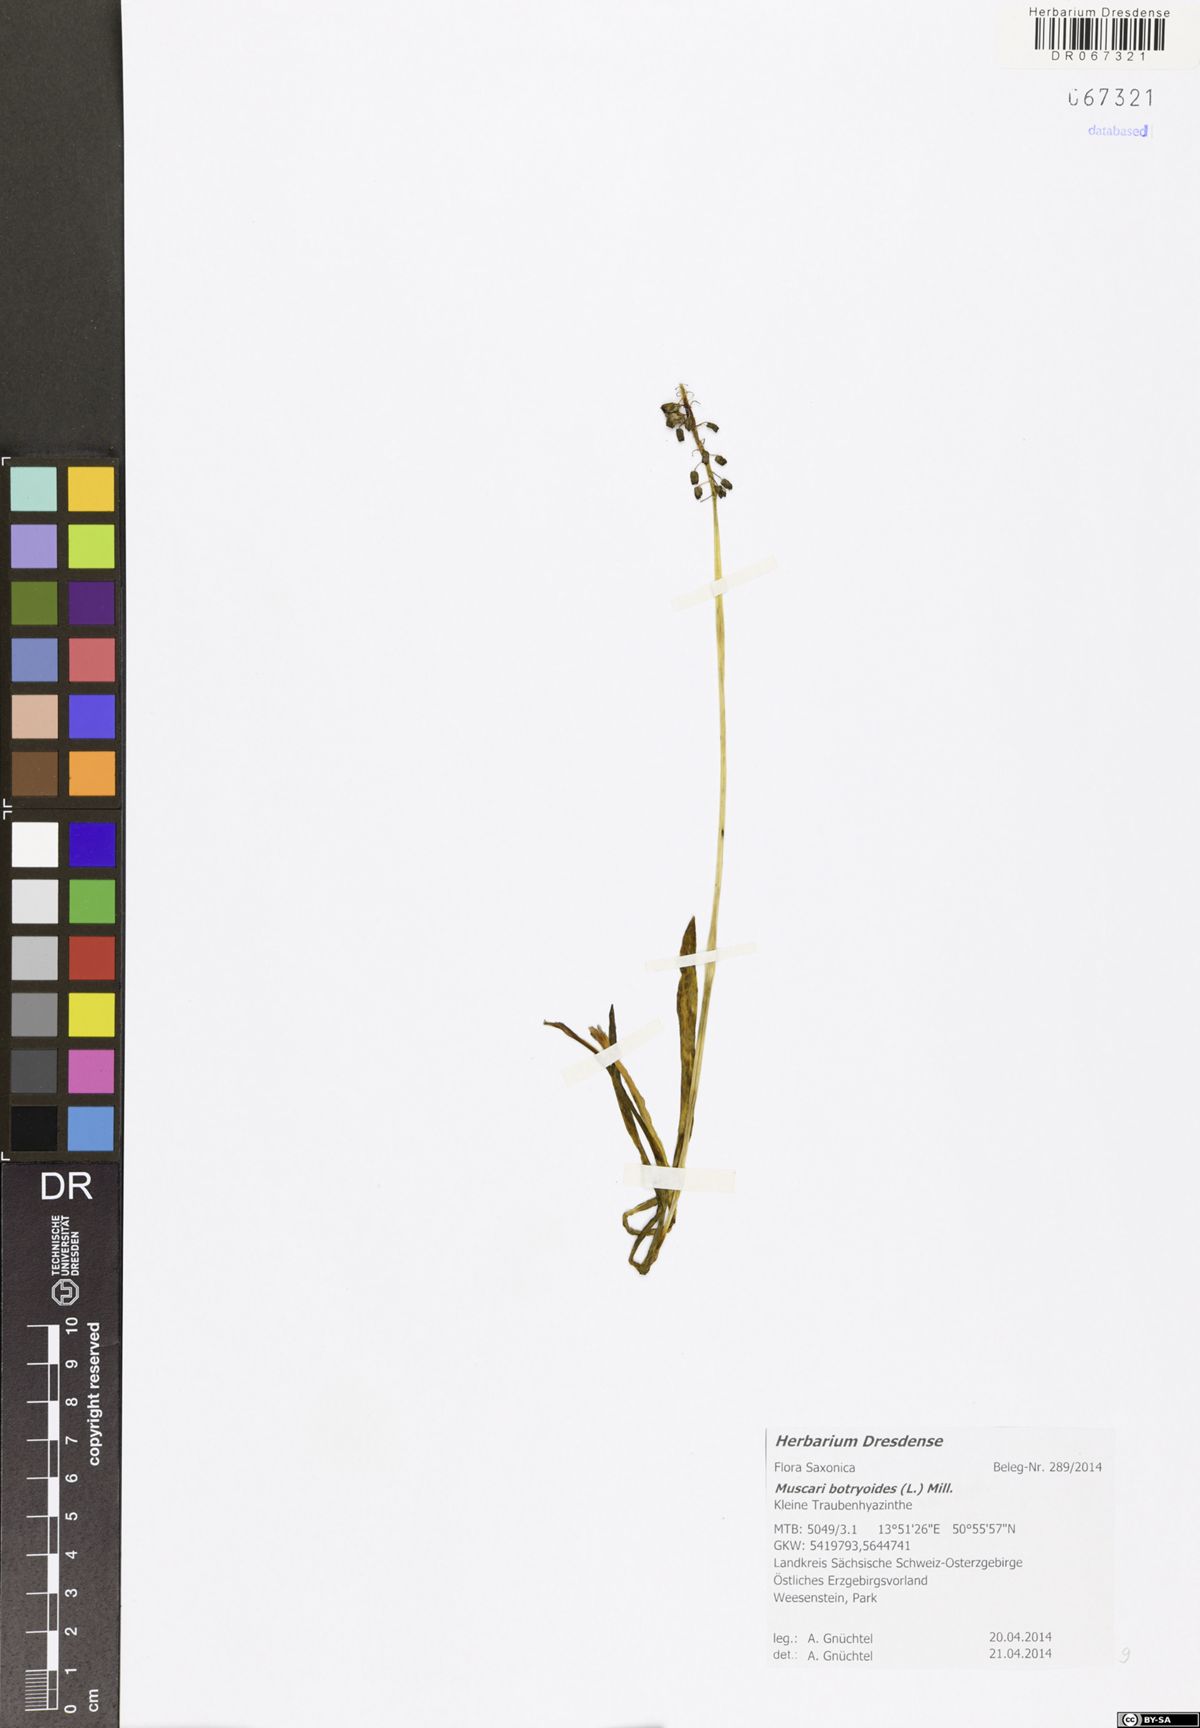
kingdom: Plantae
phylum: Tracheophyta
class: Liliopsida
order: Asparagales
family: Asparagaceae
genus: Muscari
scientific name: Muscari botryoides
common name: Compact grape-hyacinth
